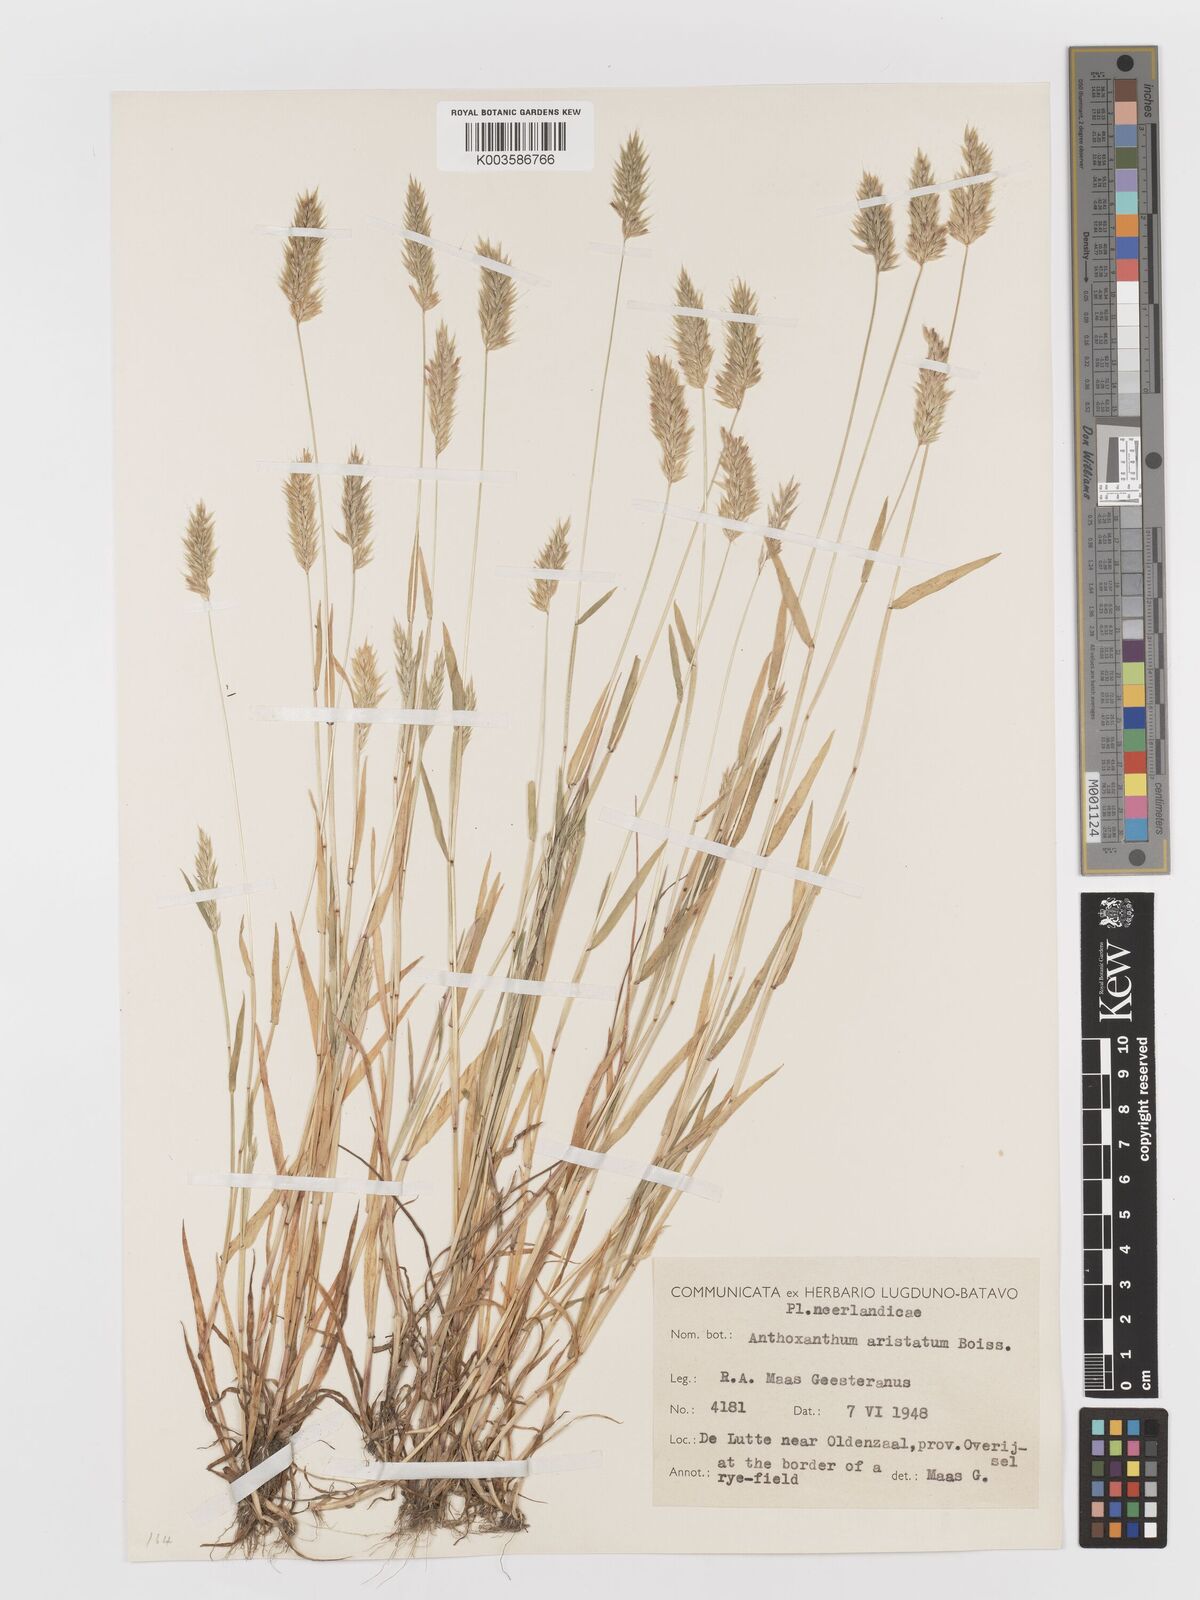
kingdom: Plantae
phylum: Tracheophyta
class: Liliopsida
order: Poales
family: Poaceae
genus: Anthoxanthum
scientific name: Anthoxanthum aristatum
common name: Annual vernal-grass
